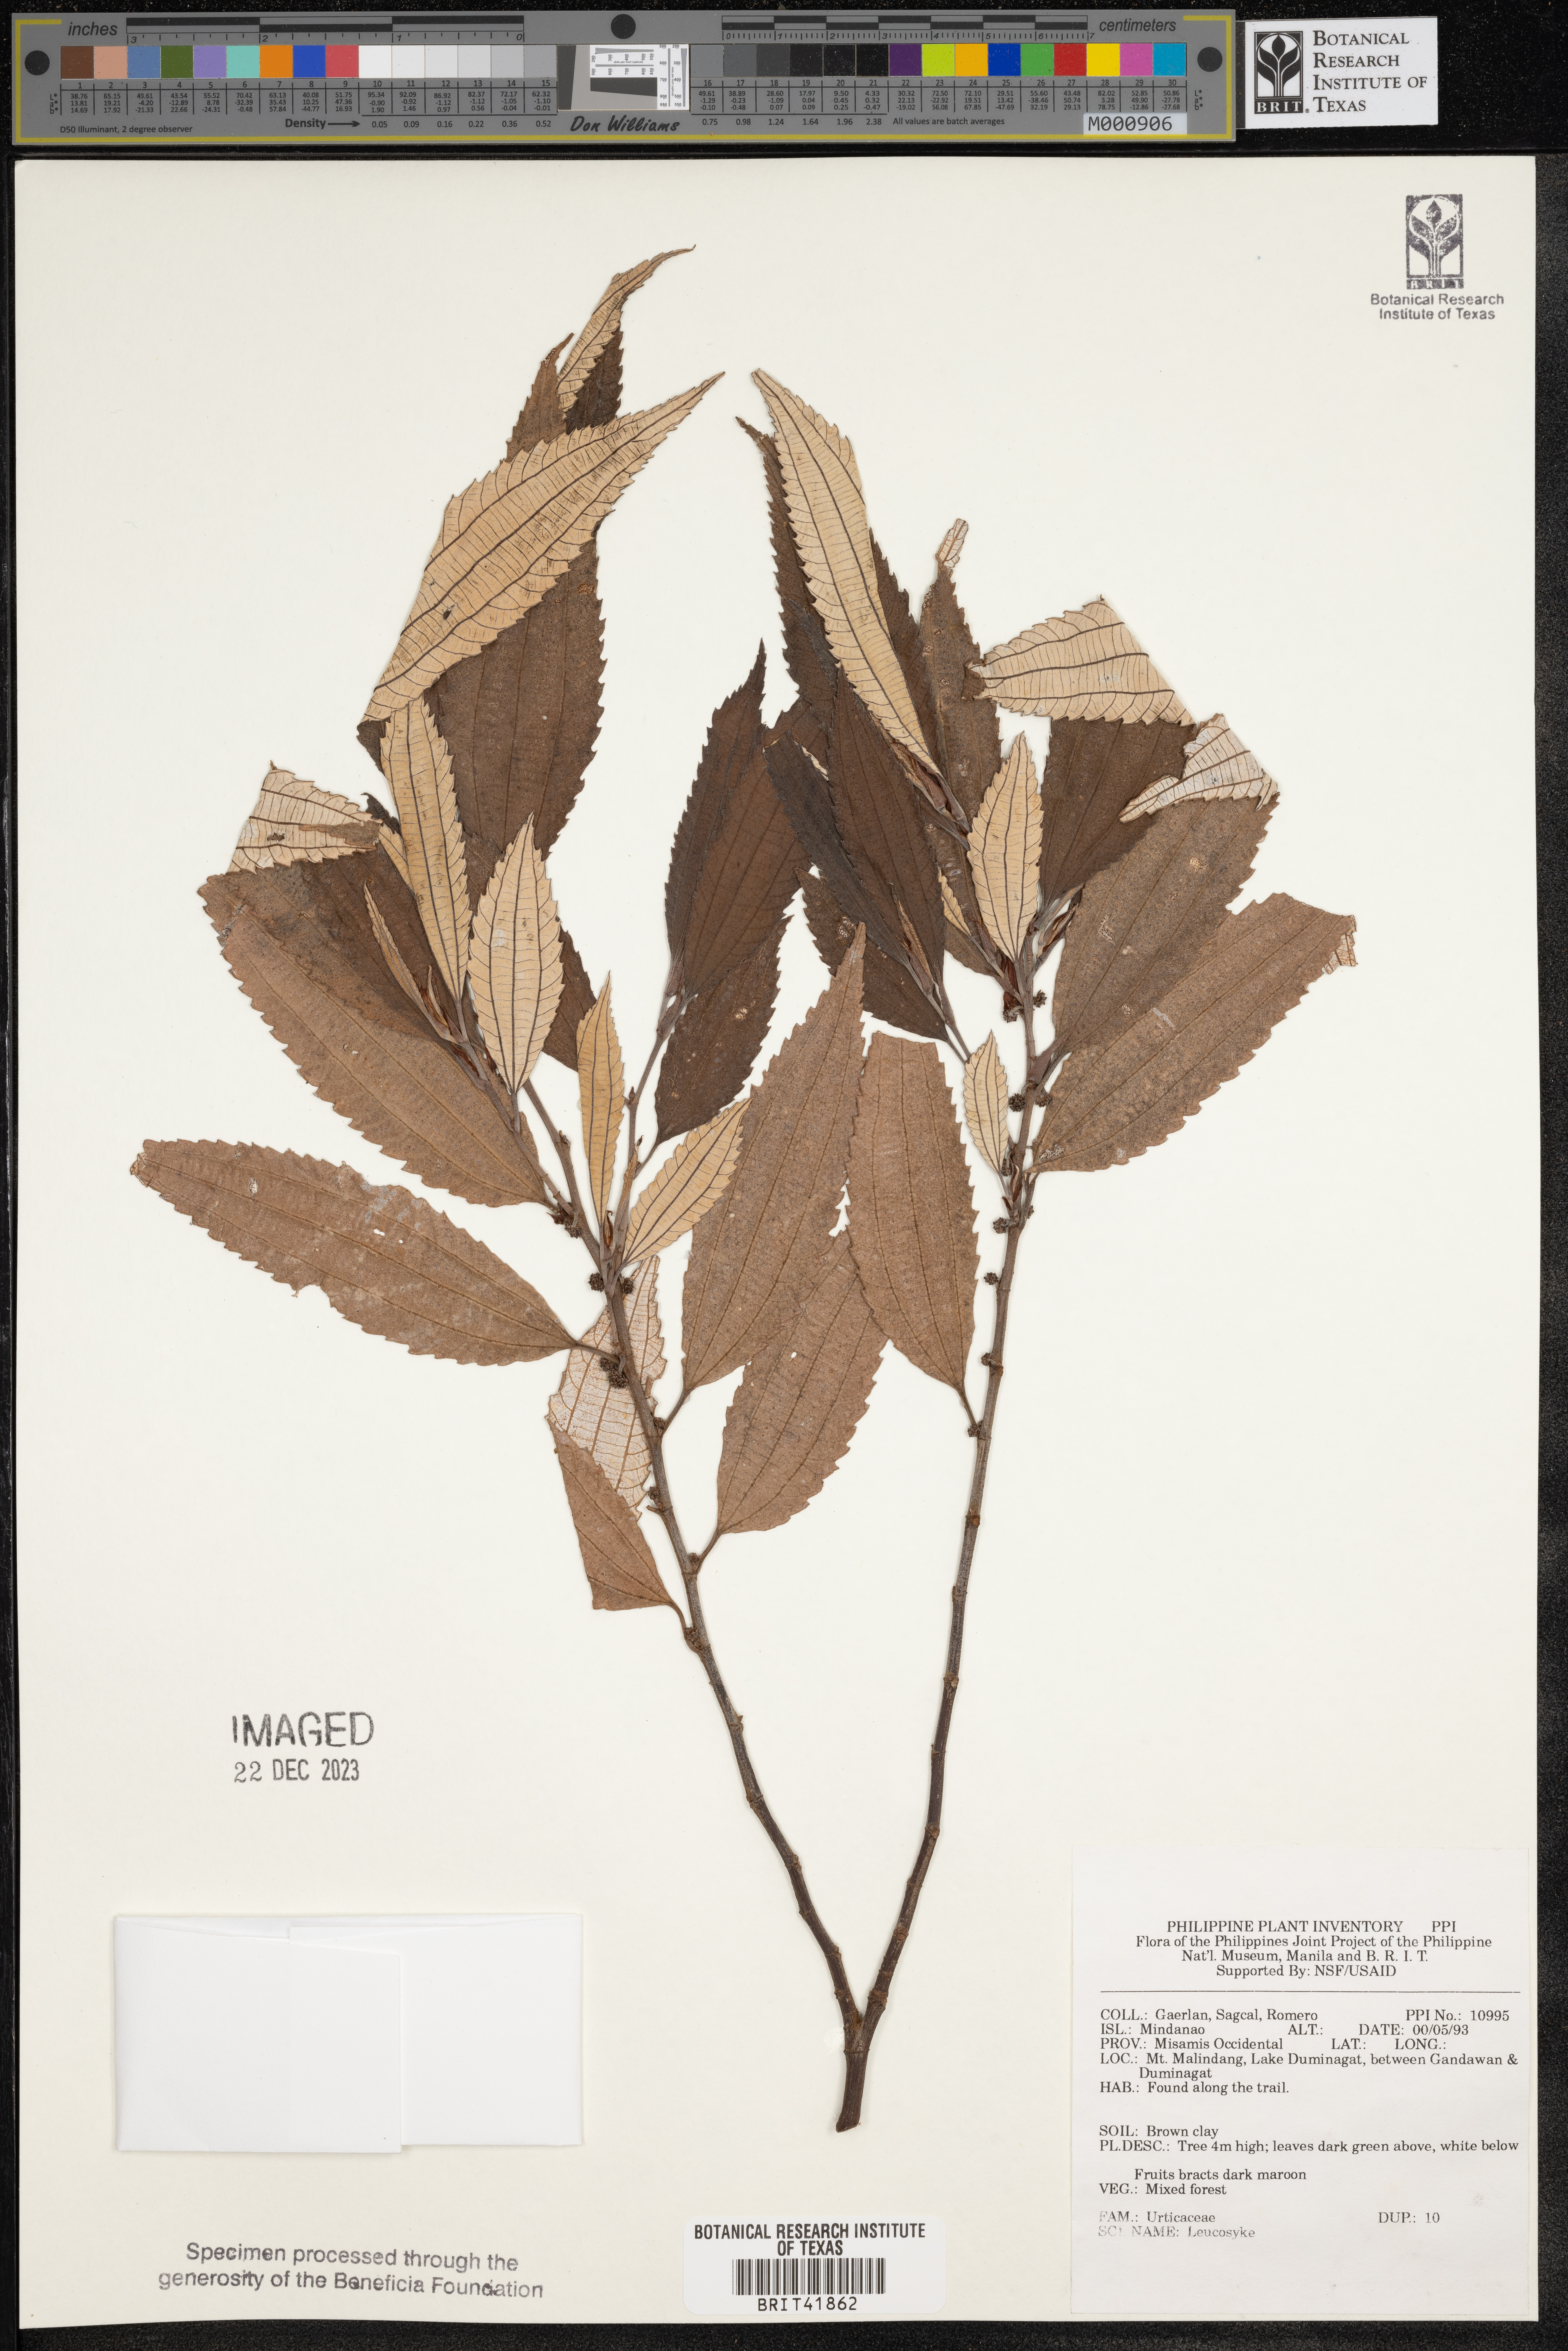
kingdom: Plantae
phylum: Tracheophyta
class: Magnoliopsida
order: Rosales
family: Urticaceae
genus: Leucosyke
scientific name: Leucosyke
